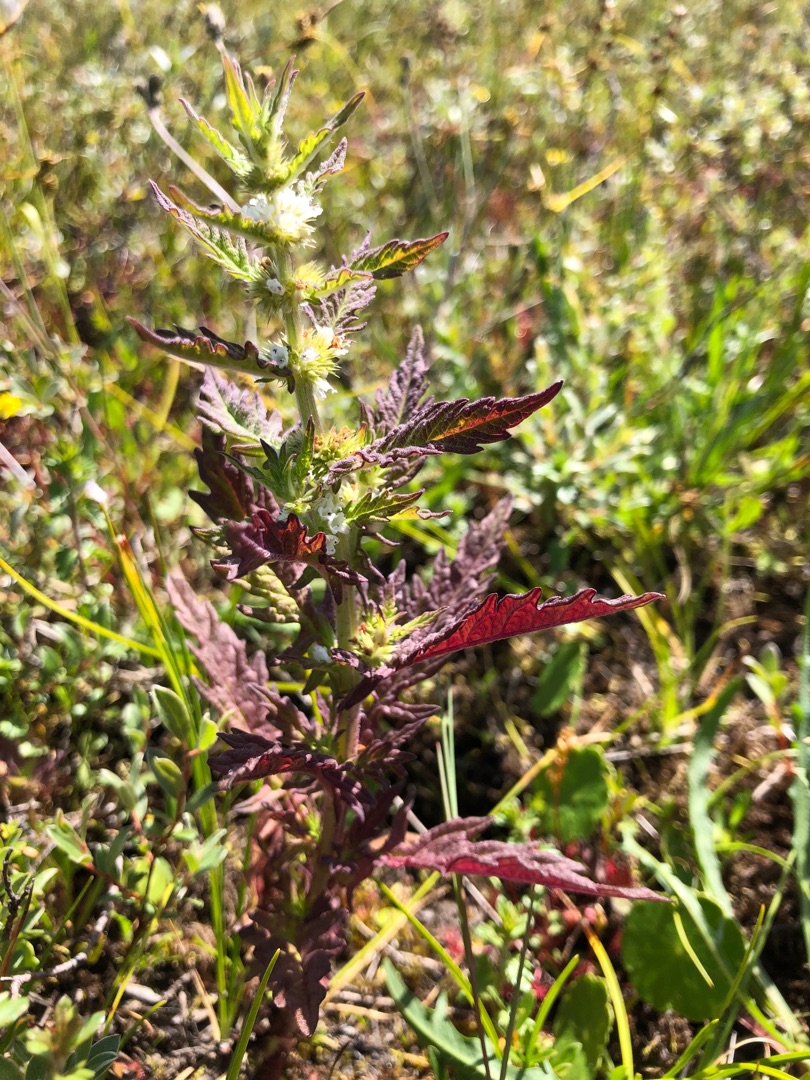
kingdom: Plantae
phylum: Tracheophyta
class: Magnoliopsida
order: Lamiales
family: Lamiaceae
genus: Lycopus
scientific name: Lycopus europaeus
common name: Sværtevæld
